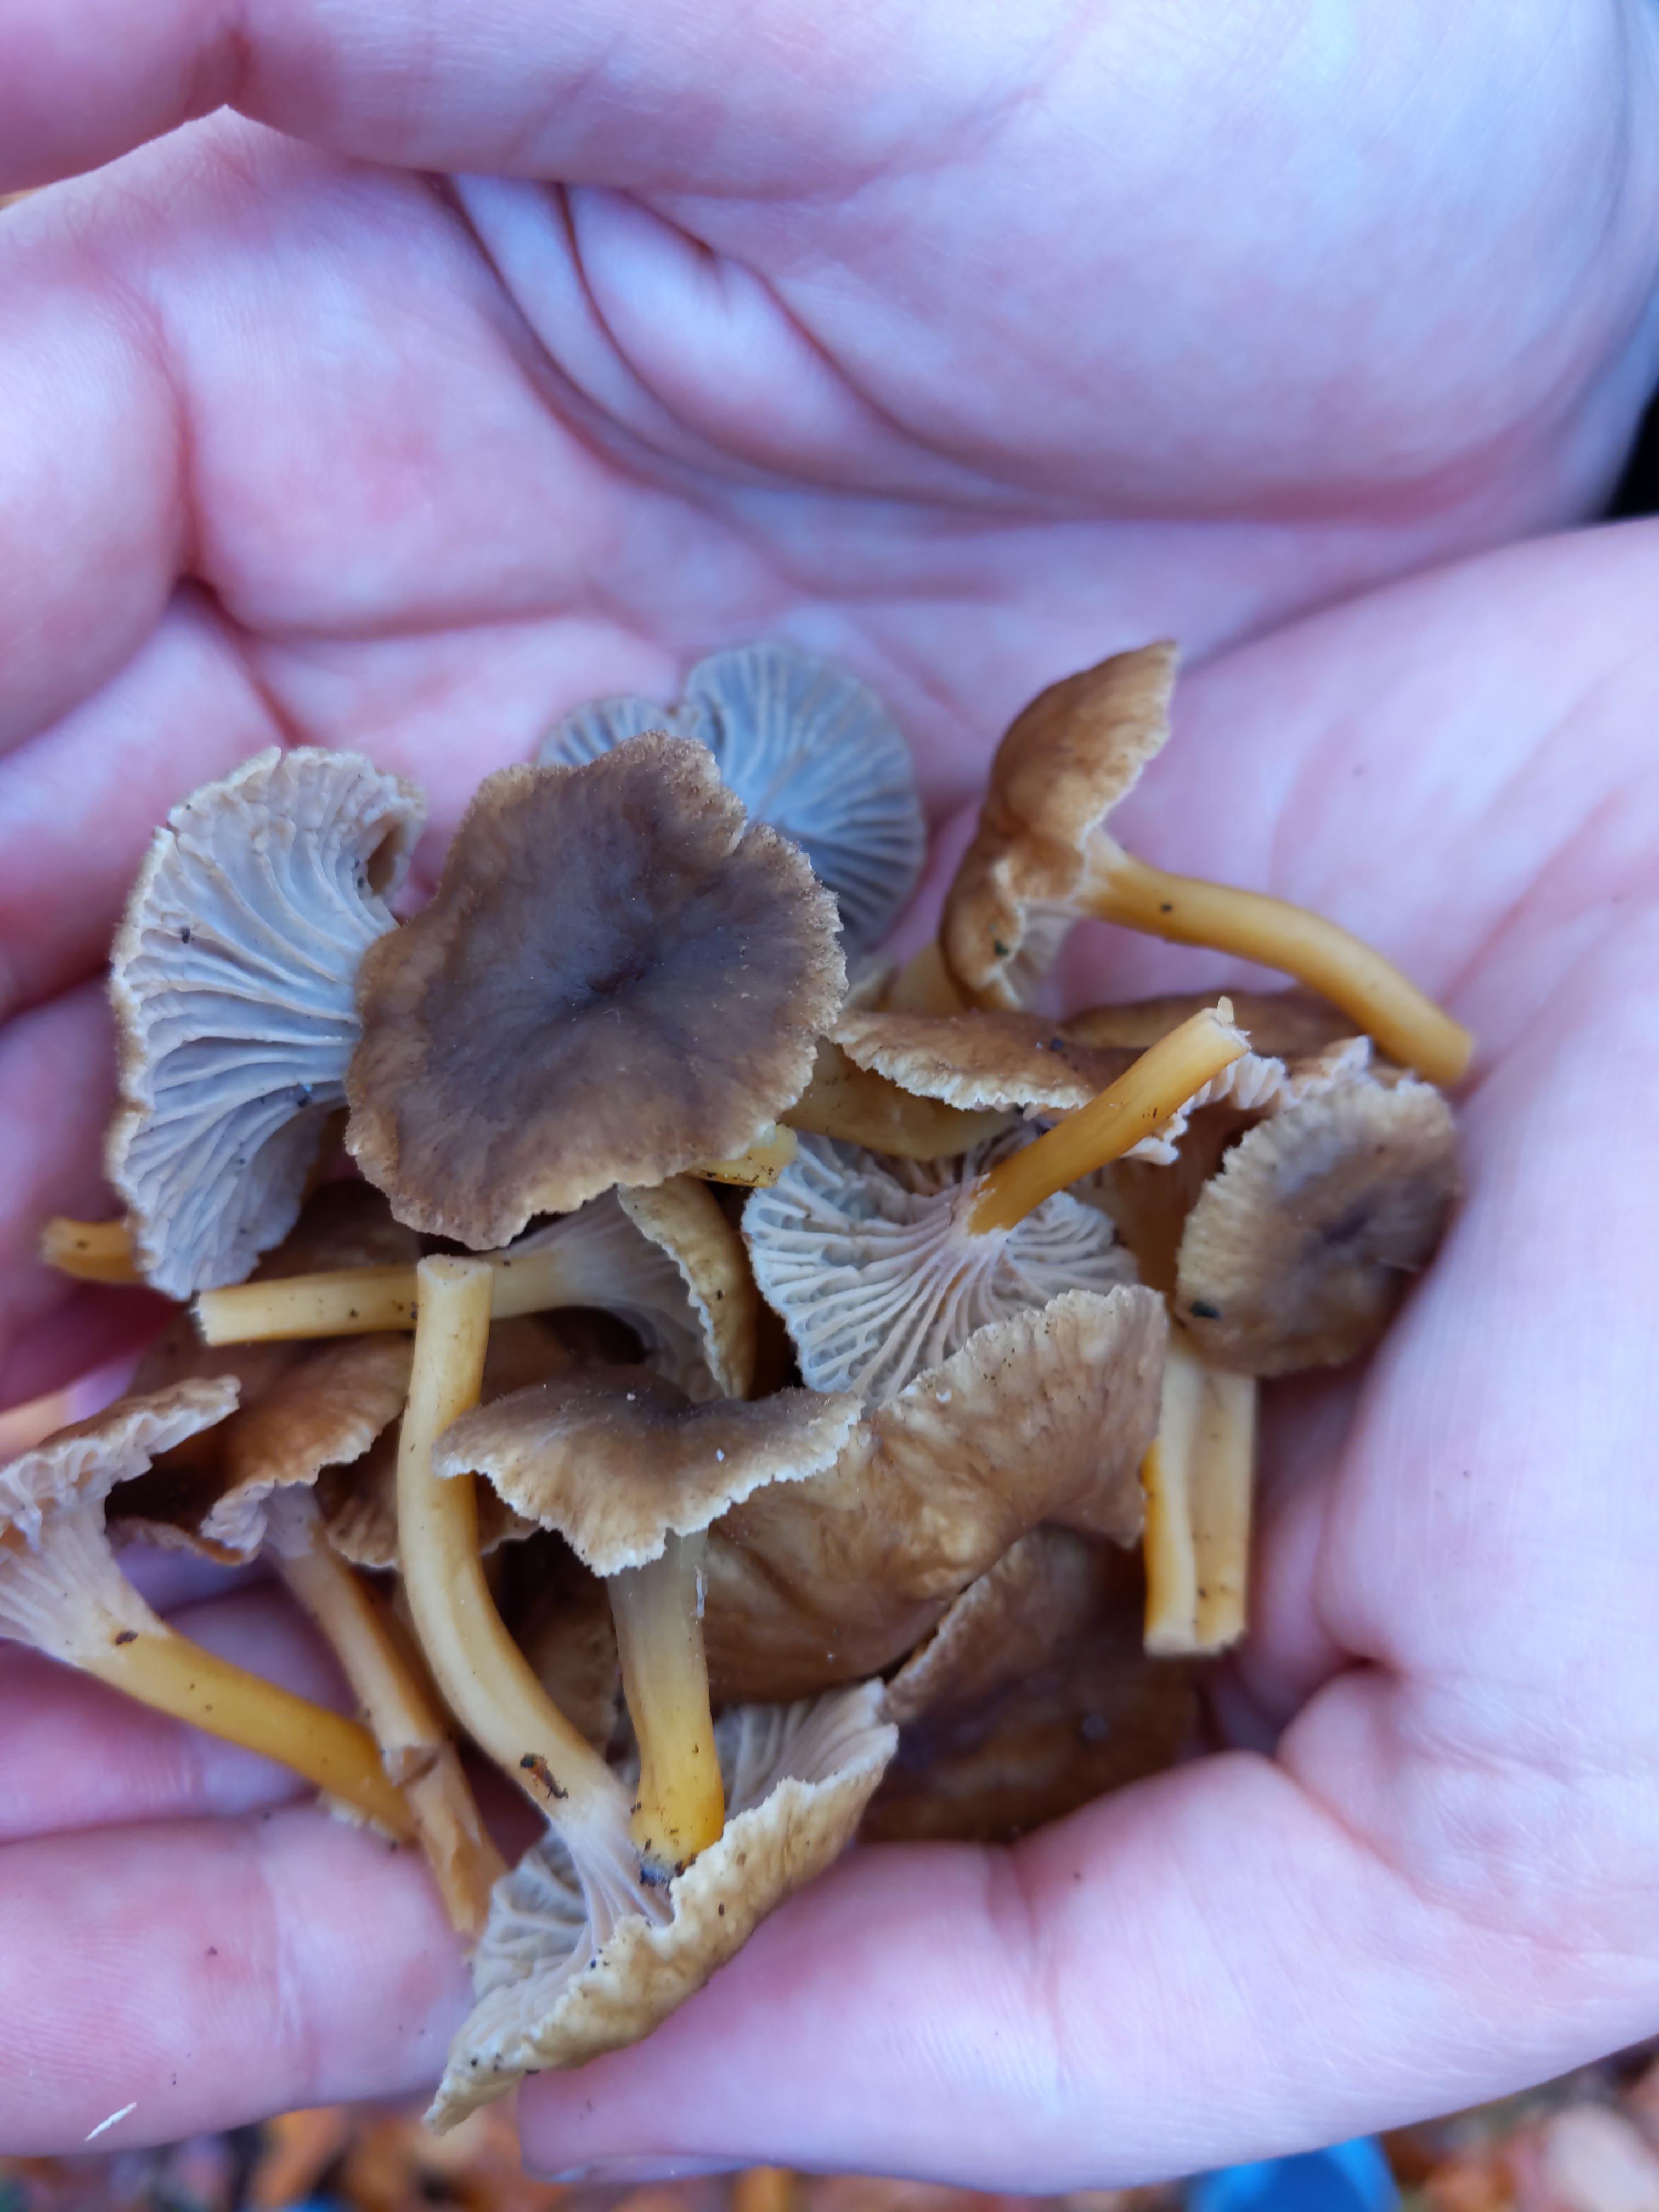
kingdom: Fungi
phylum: Basidiomycota
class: Agaricomycetes
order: Cantharellales
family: Hydnaceae
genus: Craterellus
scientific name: Craterellus tubaeformis
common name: tragt-kantarel
